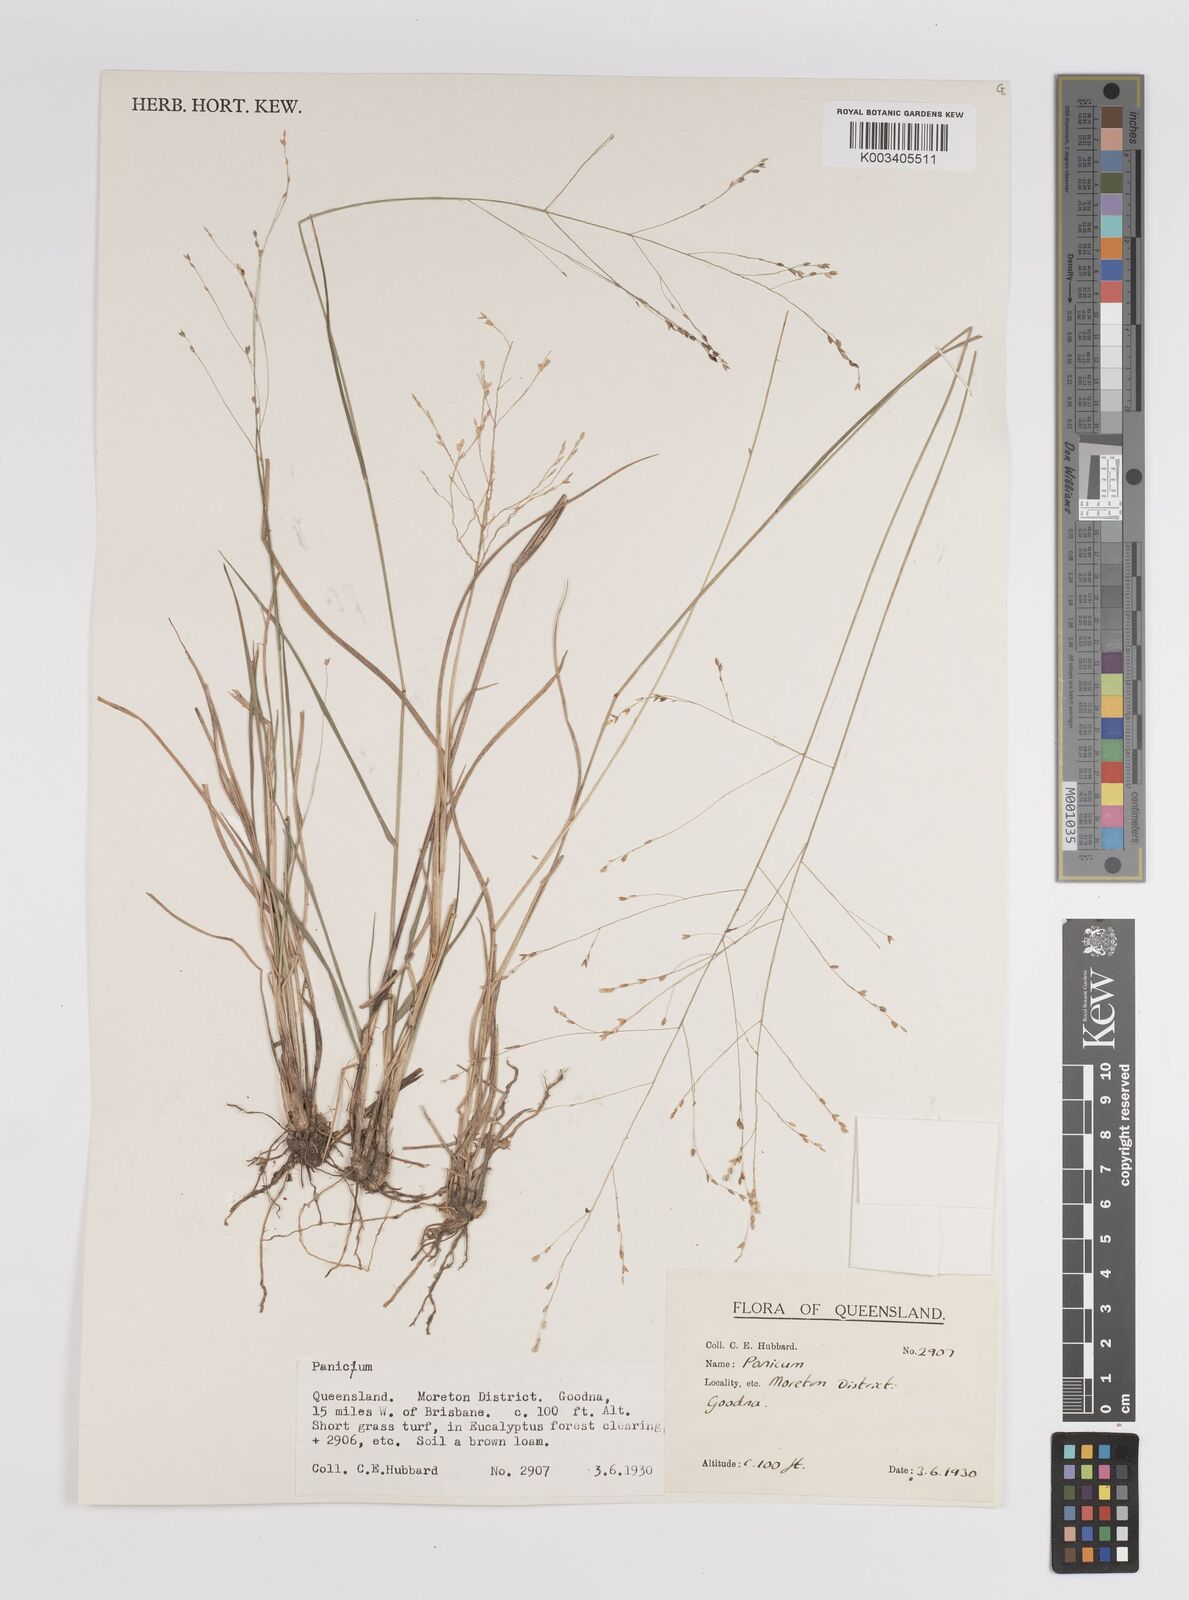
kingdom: Plantae
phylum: Tracheophyta
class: Liliopsida
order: Poales
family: Poaceae
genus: Panicum
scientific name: Panicum
